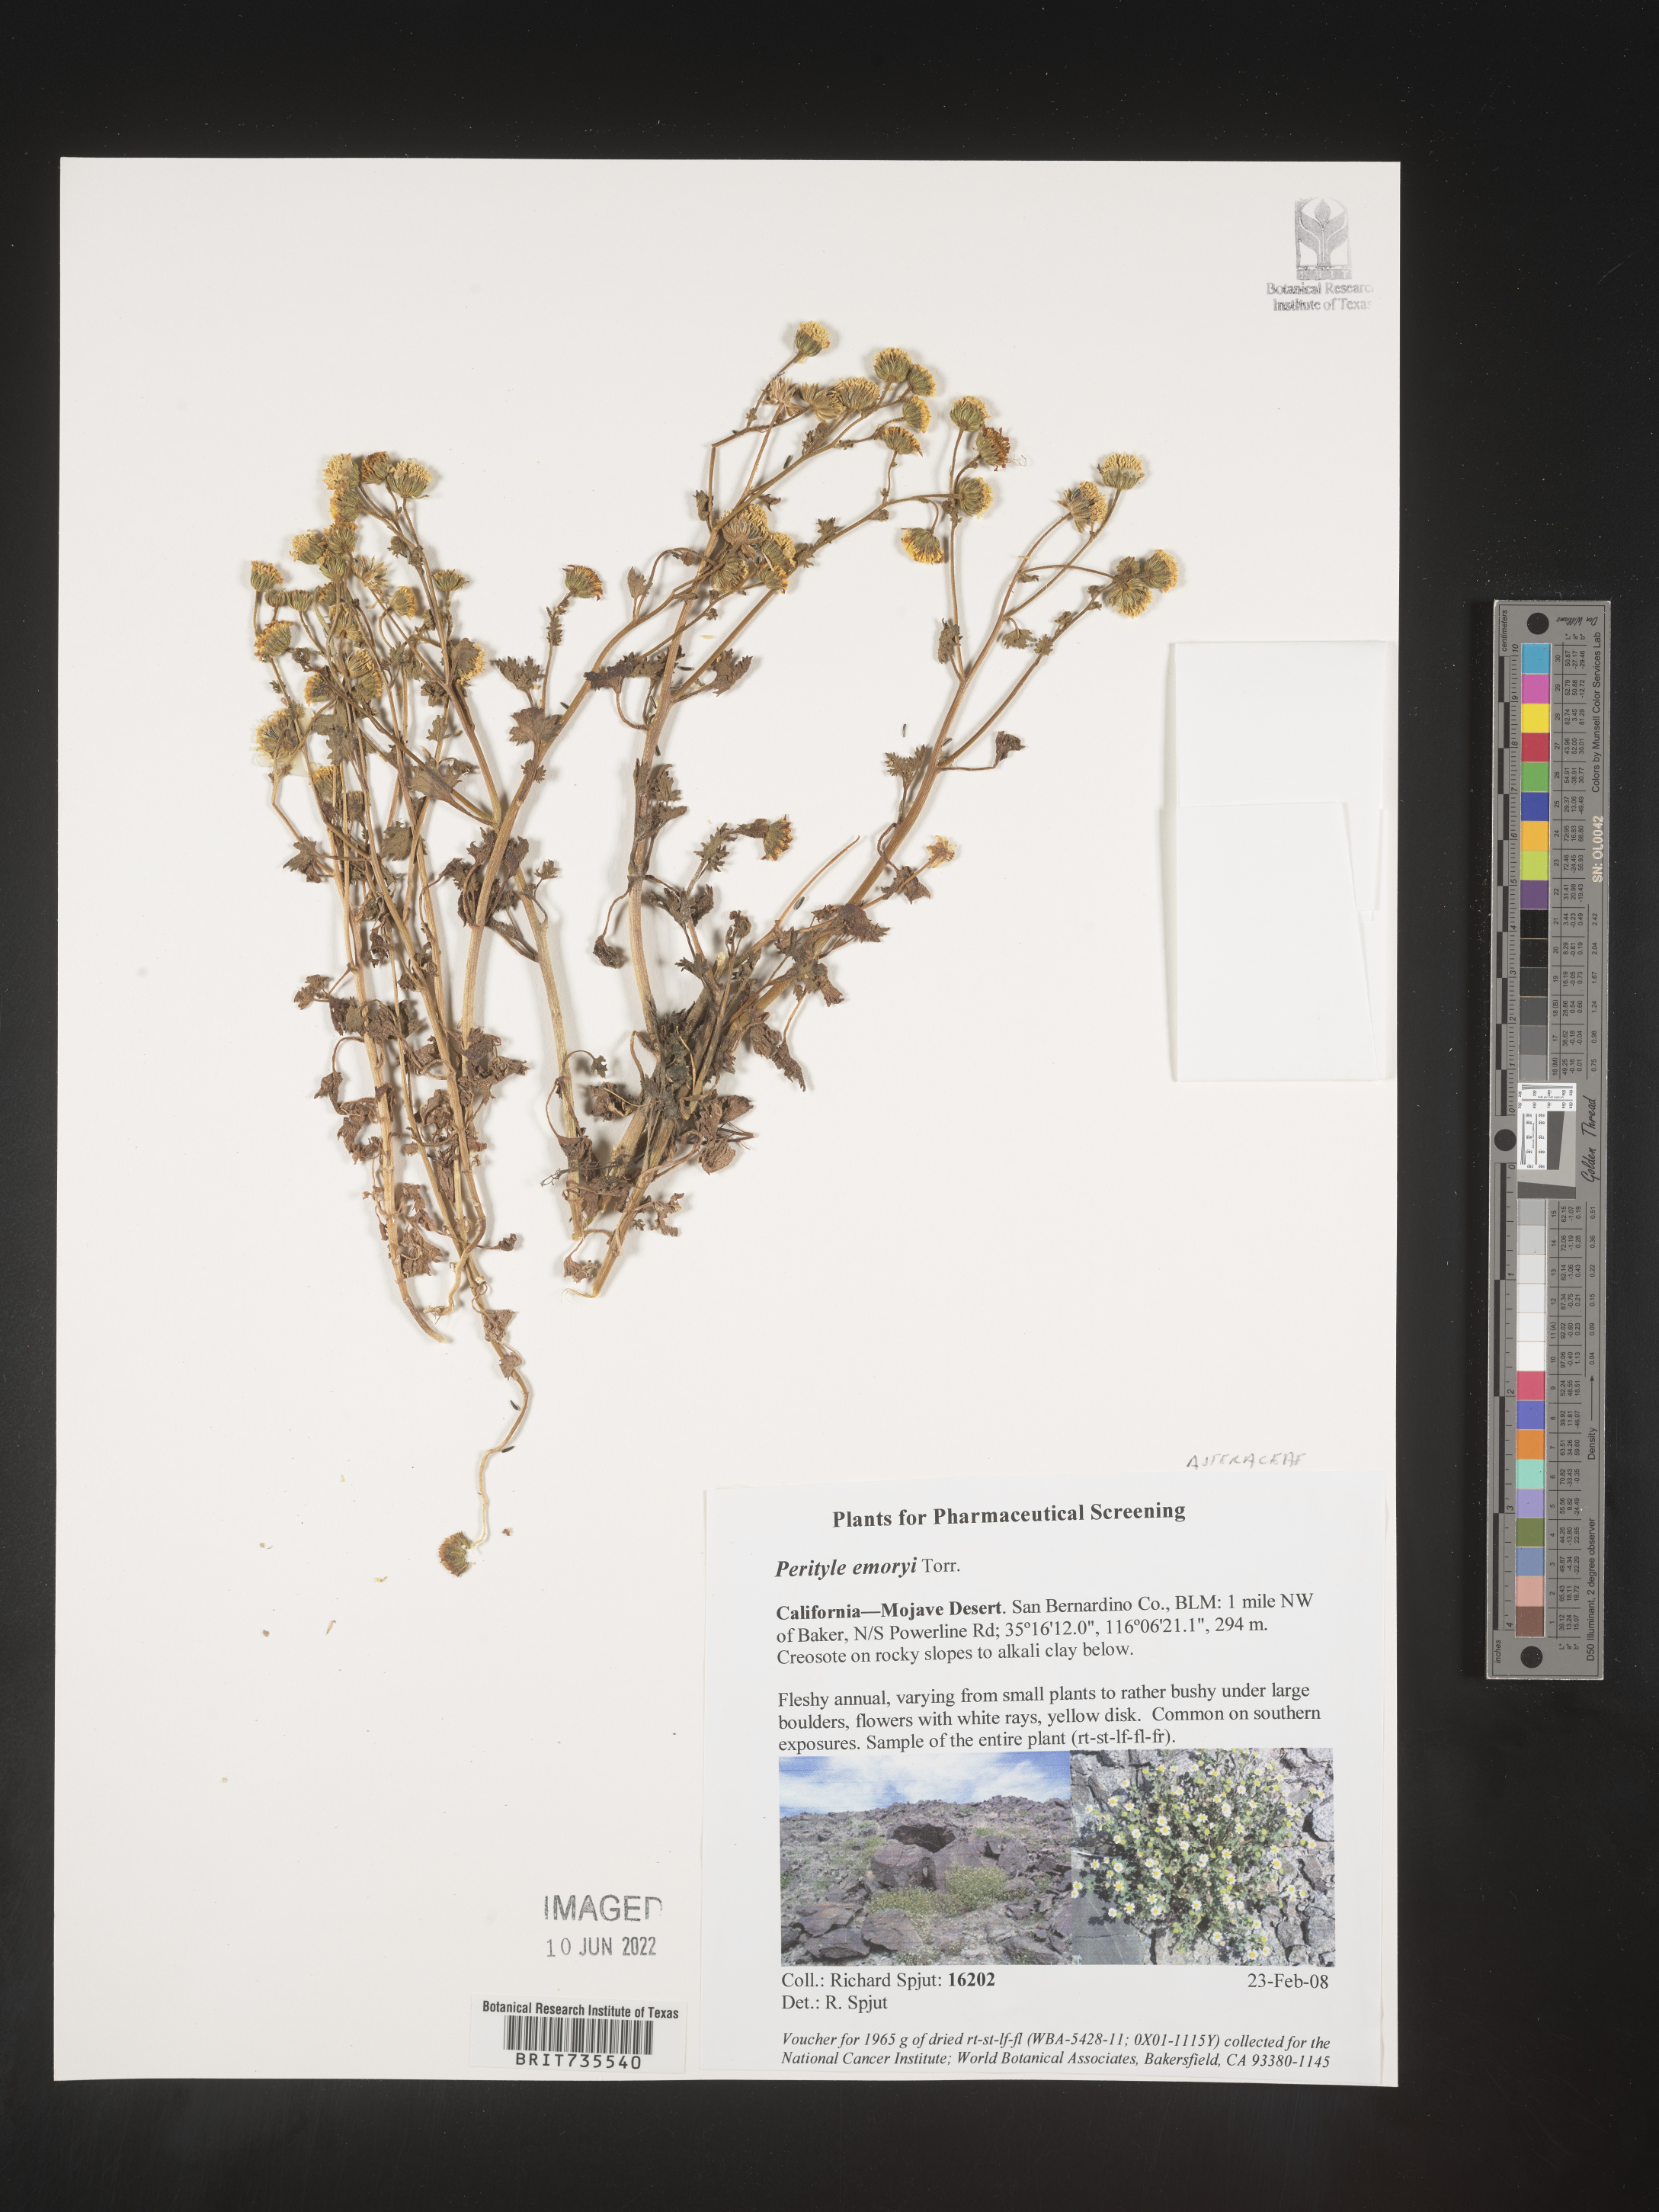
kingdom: Plantae
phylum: Tracheophyta
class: Magnoliopsida
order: Asterales
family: Asteraceae
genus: Perityle
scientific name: Perityle
